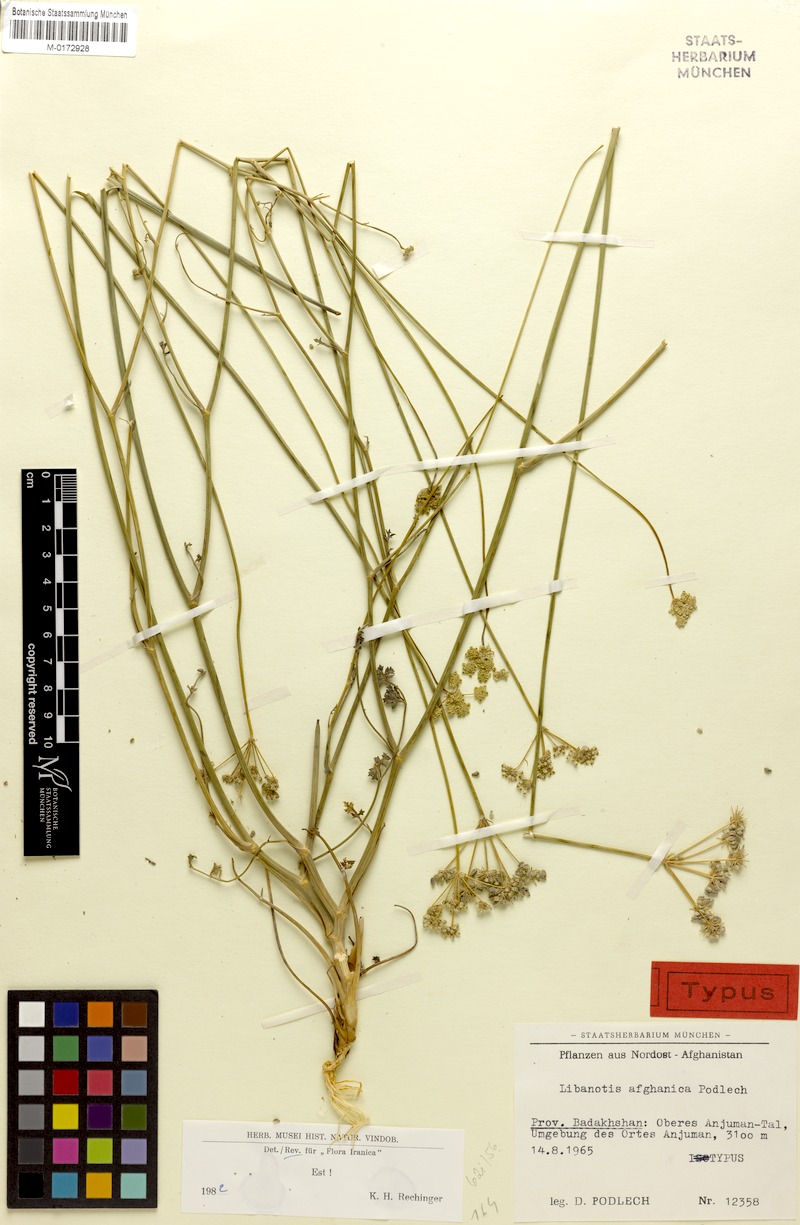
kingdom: Plantae
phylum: Tracheophyta
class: Magnoliopsida
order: Apiales
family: Apiaceae
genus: Seseli
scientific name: Seseli afghanicum
